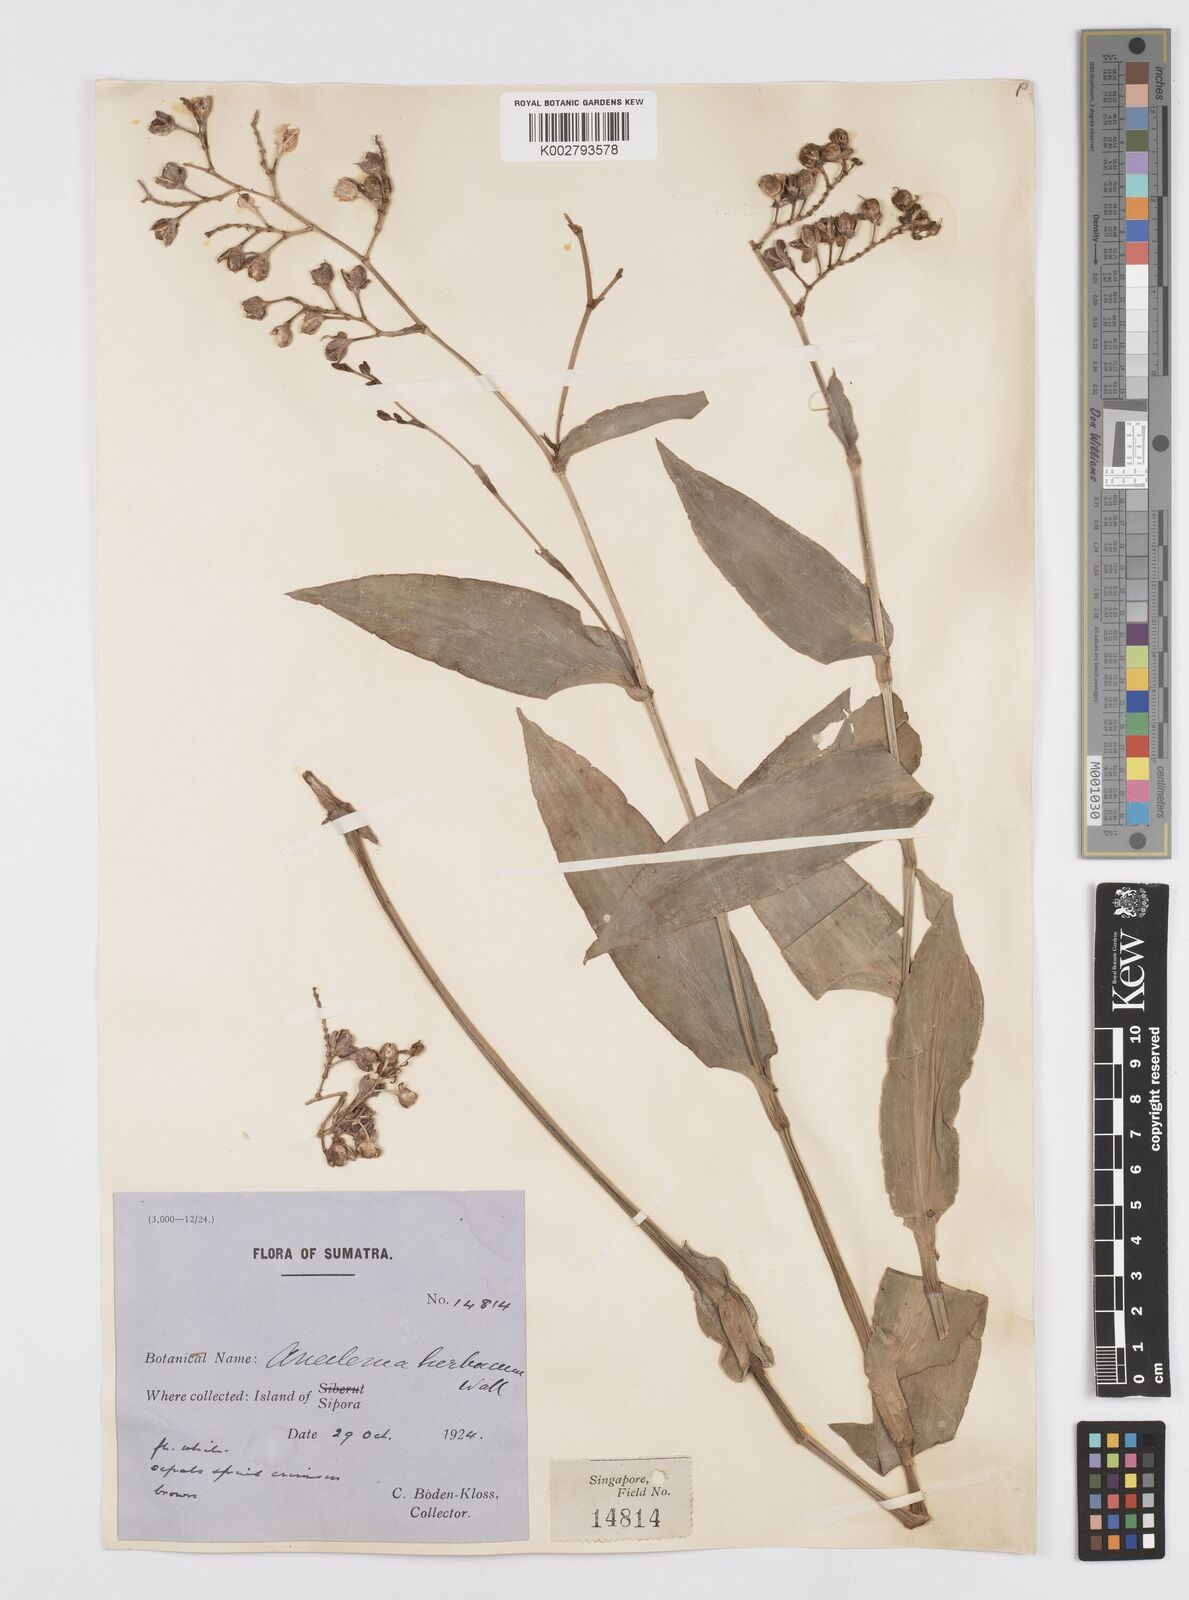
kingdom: Plantae
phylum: Tracheophyta
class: Liliopsida
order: Commelinales
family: Commelinaceae
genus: Murdannia
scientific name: Murdannia
